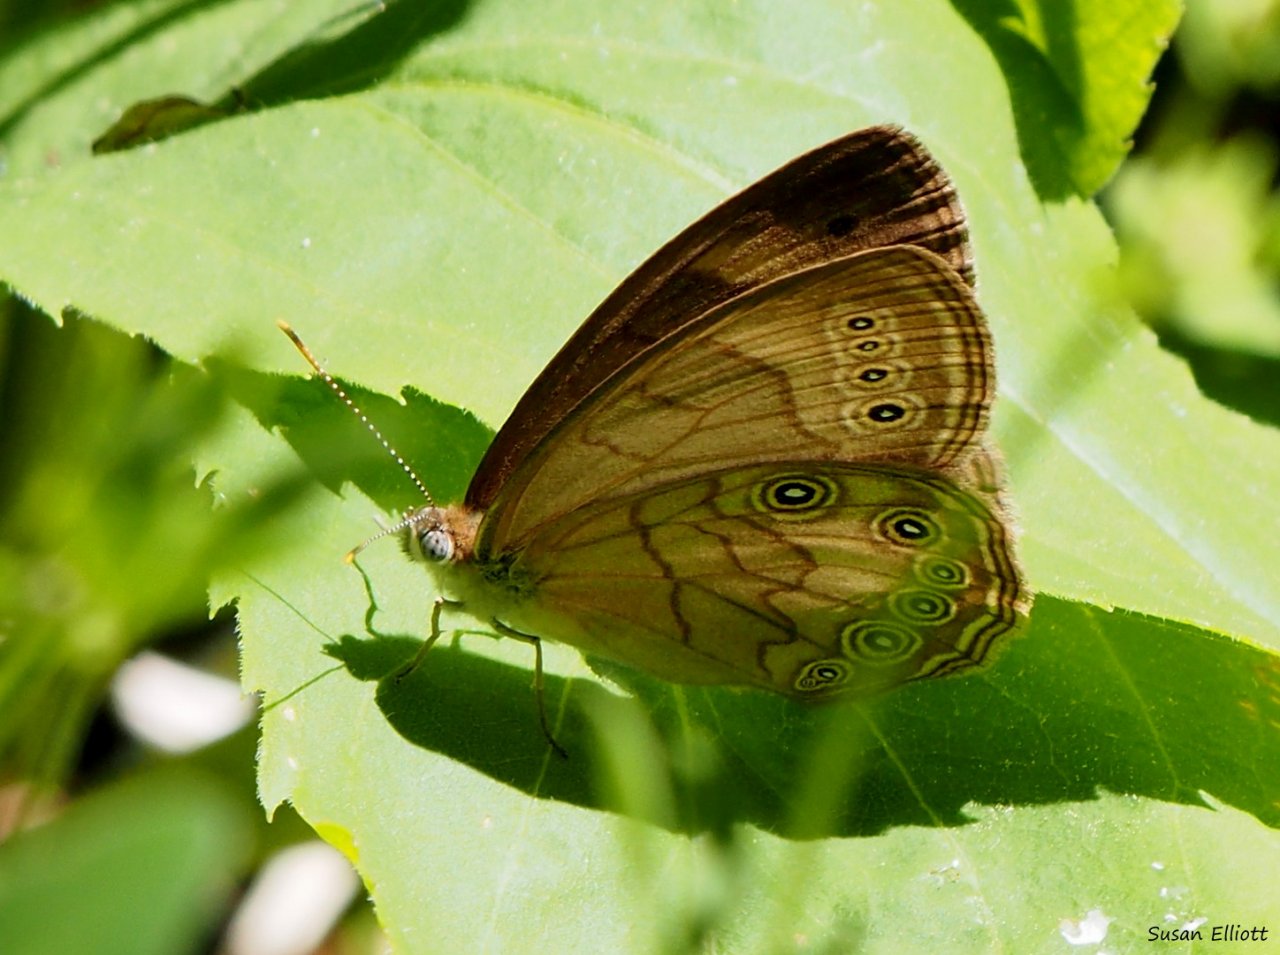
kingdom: Animalia
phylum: Arthropoda
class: Insecta
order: Lepidoptera
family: Nymphalidae
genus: Lethe
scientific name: Lethe eurydice
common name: Eyed Brown
